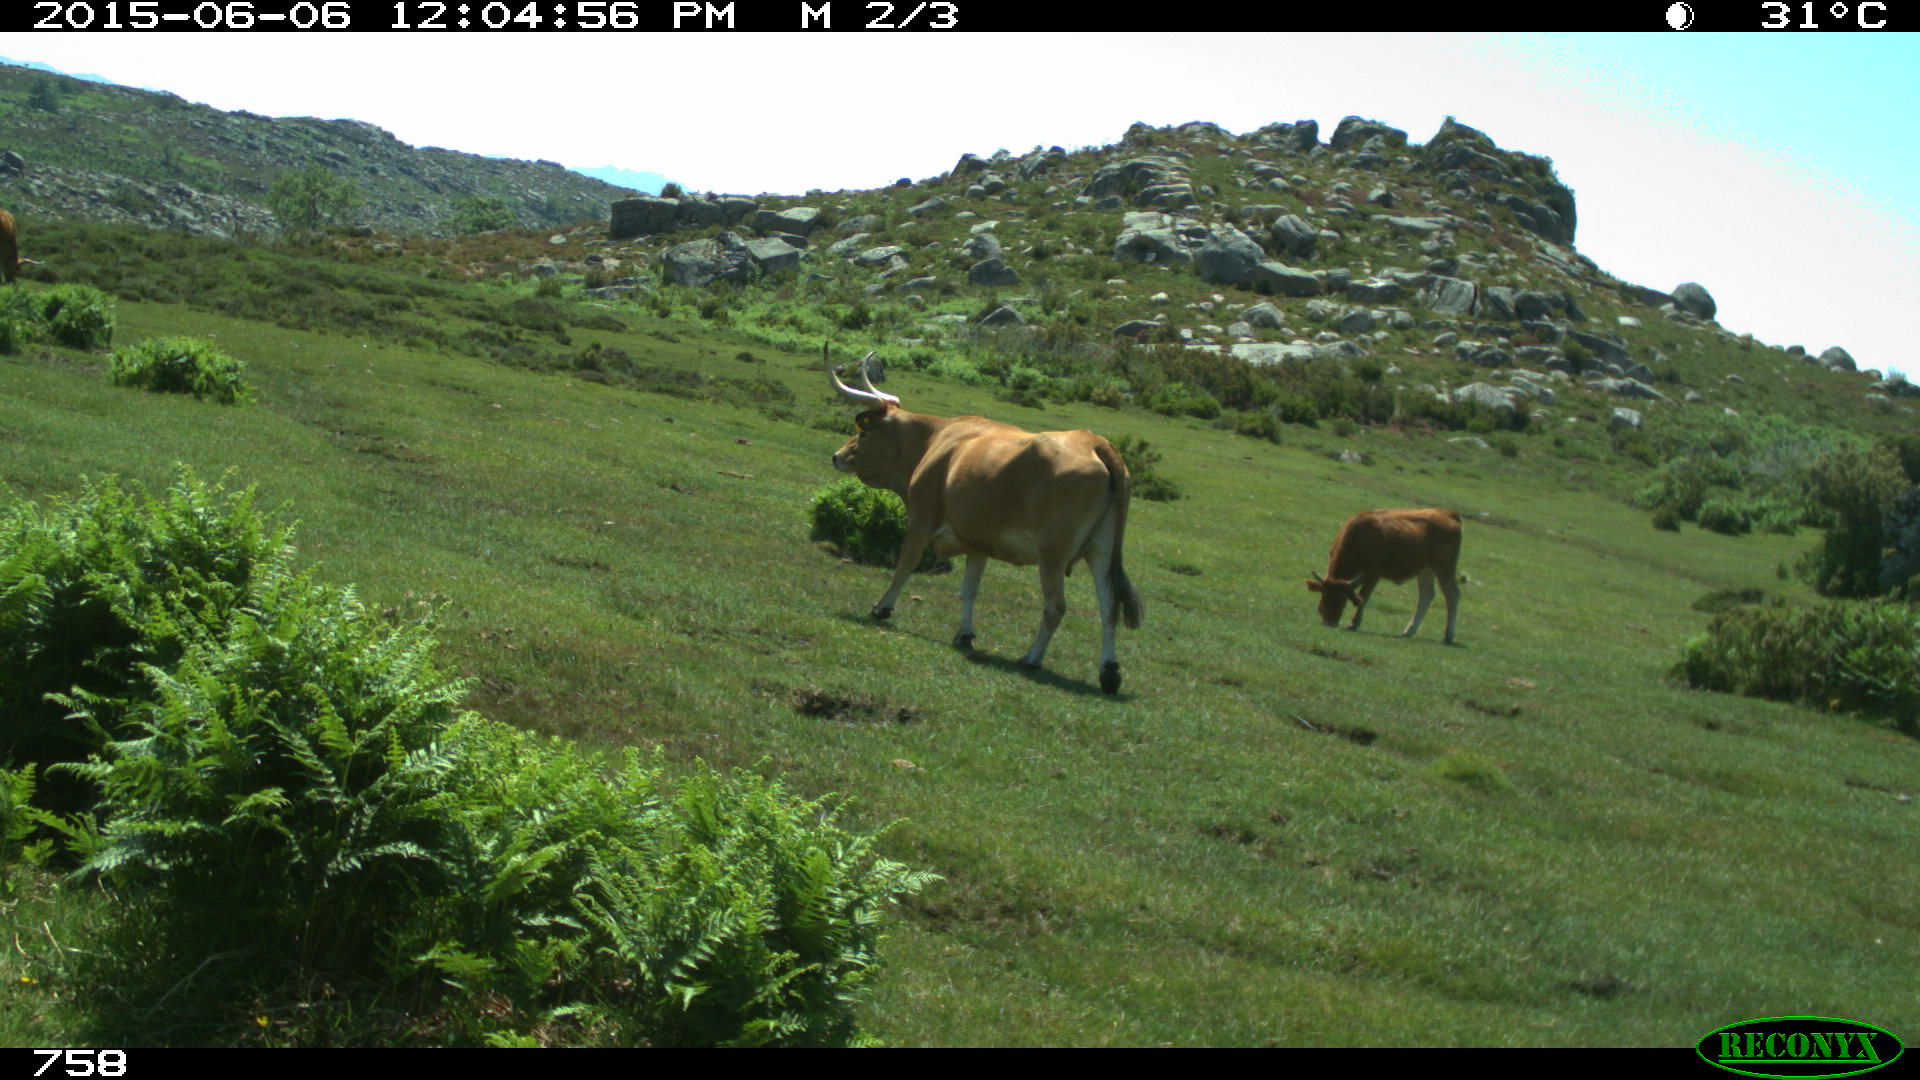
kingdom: Animalia
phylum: Chordata
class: Mammalia
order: Artiodactyla
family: Bovidae
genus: Bos
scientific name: Bos taurus
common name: Domesticated cattle
